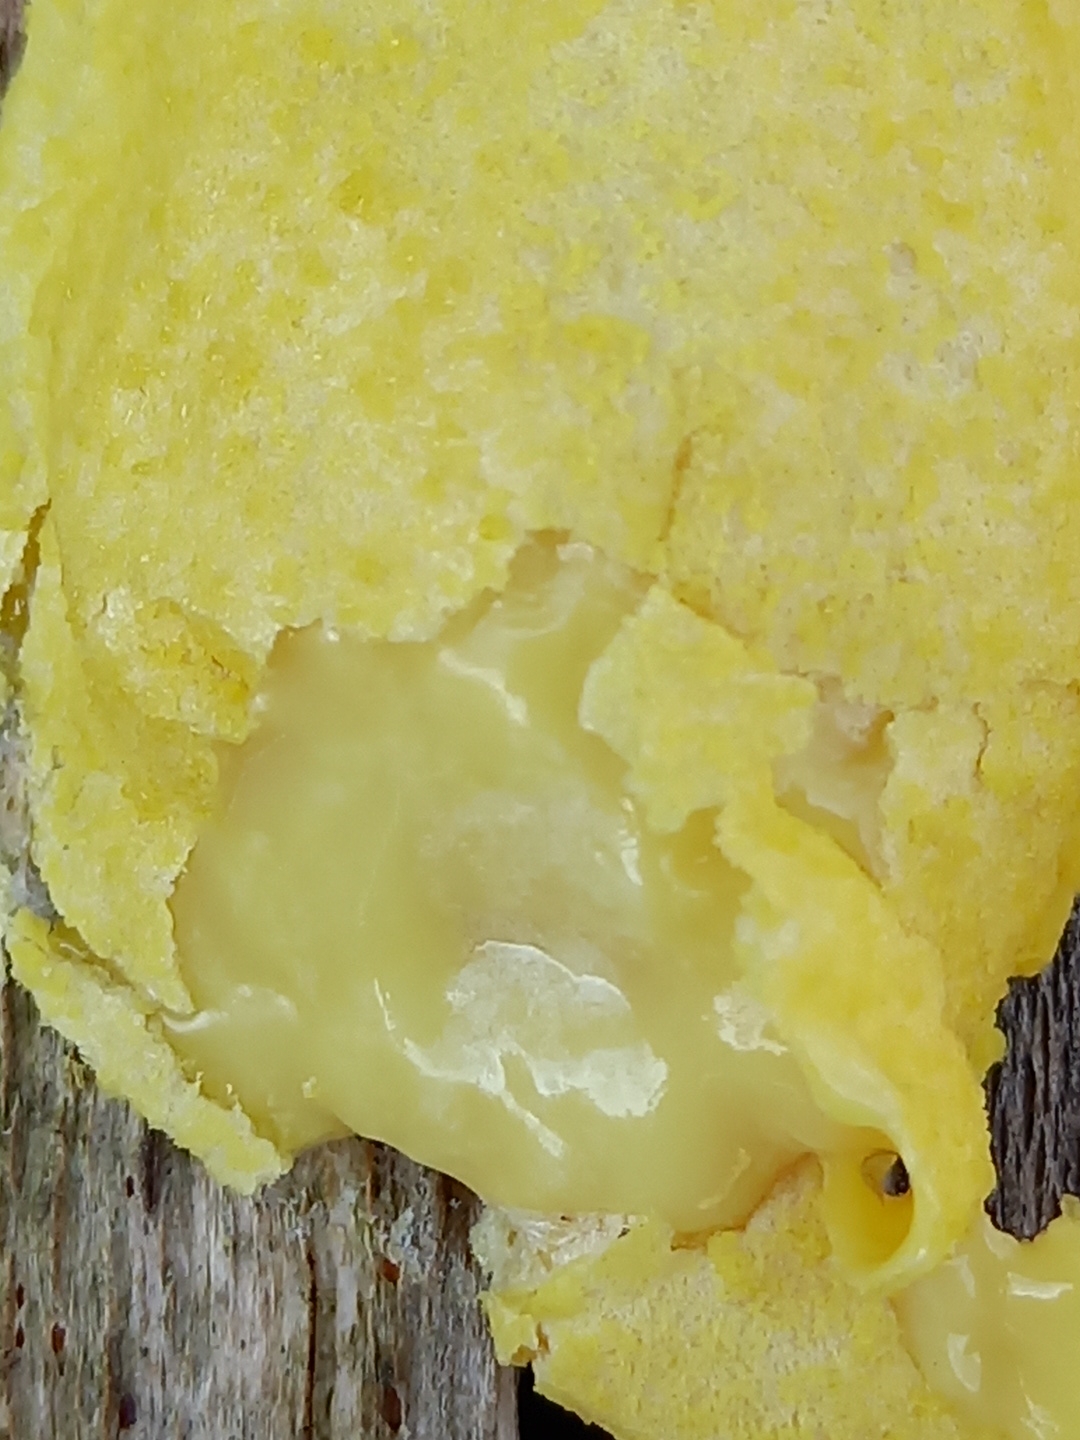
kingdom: Protozoa
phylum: Mycetozoa
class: Myxomycetes
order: Cribrariales
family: Tubiferaceae
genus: Reticularia
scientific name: Reticularia lycoperdon
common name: skinnende støvpude
